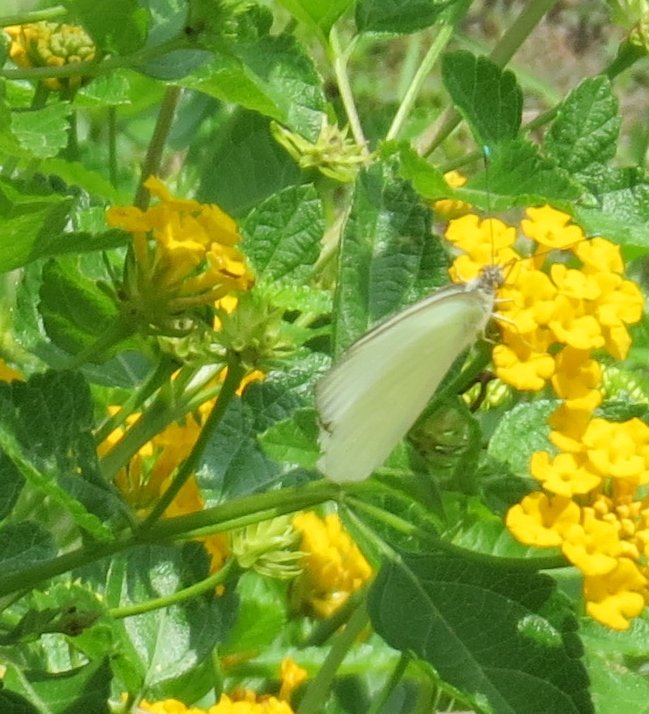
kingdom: Animalia
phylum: Arthropoda
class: Insecta
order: Lepidoptera
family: Pieridae
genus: Ascia
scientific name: Ascia monuste
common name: Great Southern White
